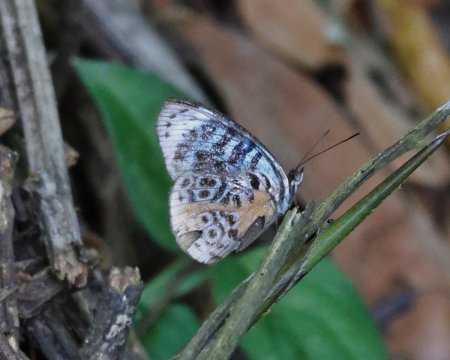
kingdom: Animalia
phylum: Arthropoda
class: Insecta
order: Lepidoptera
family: Nymphalidae
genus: Eunica
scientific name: Eunica chlororhoa
